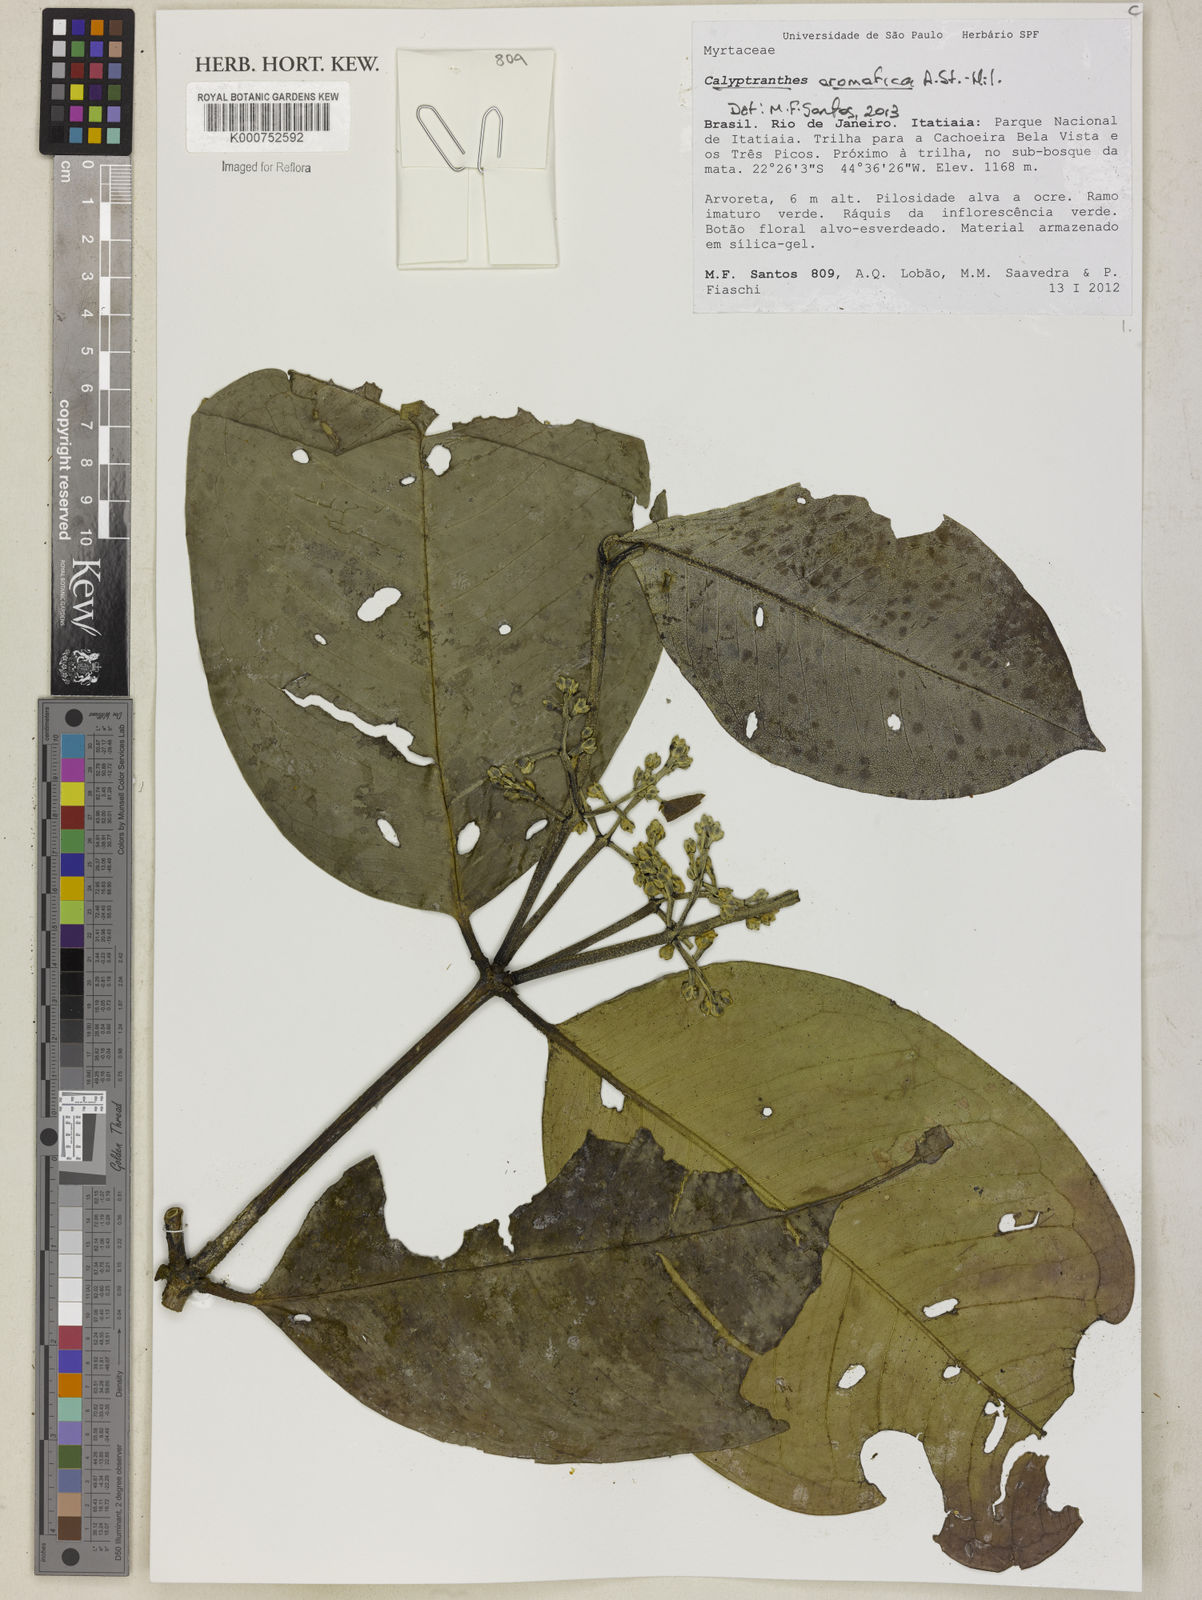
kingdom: Plantae
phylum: Tracheophyta
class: Magnoliopsida
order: Myrtales
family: Myrtaceae
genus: Myrcia
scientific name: Myrcia carioca
